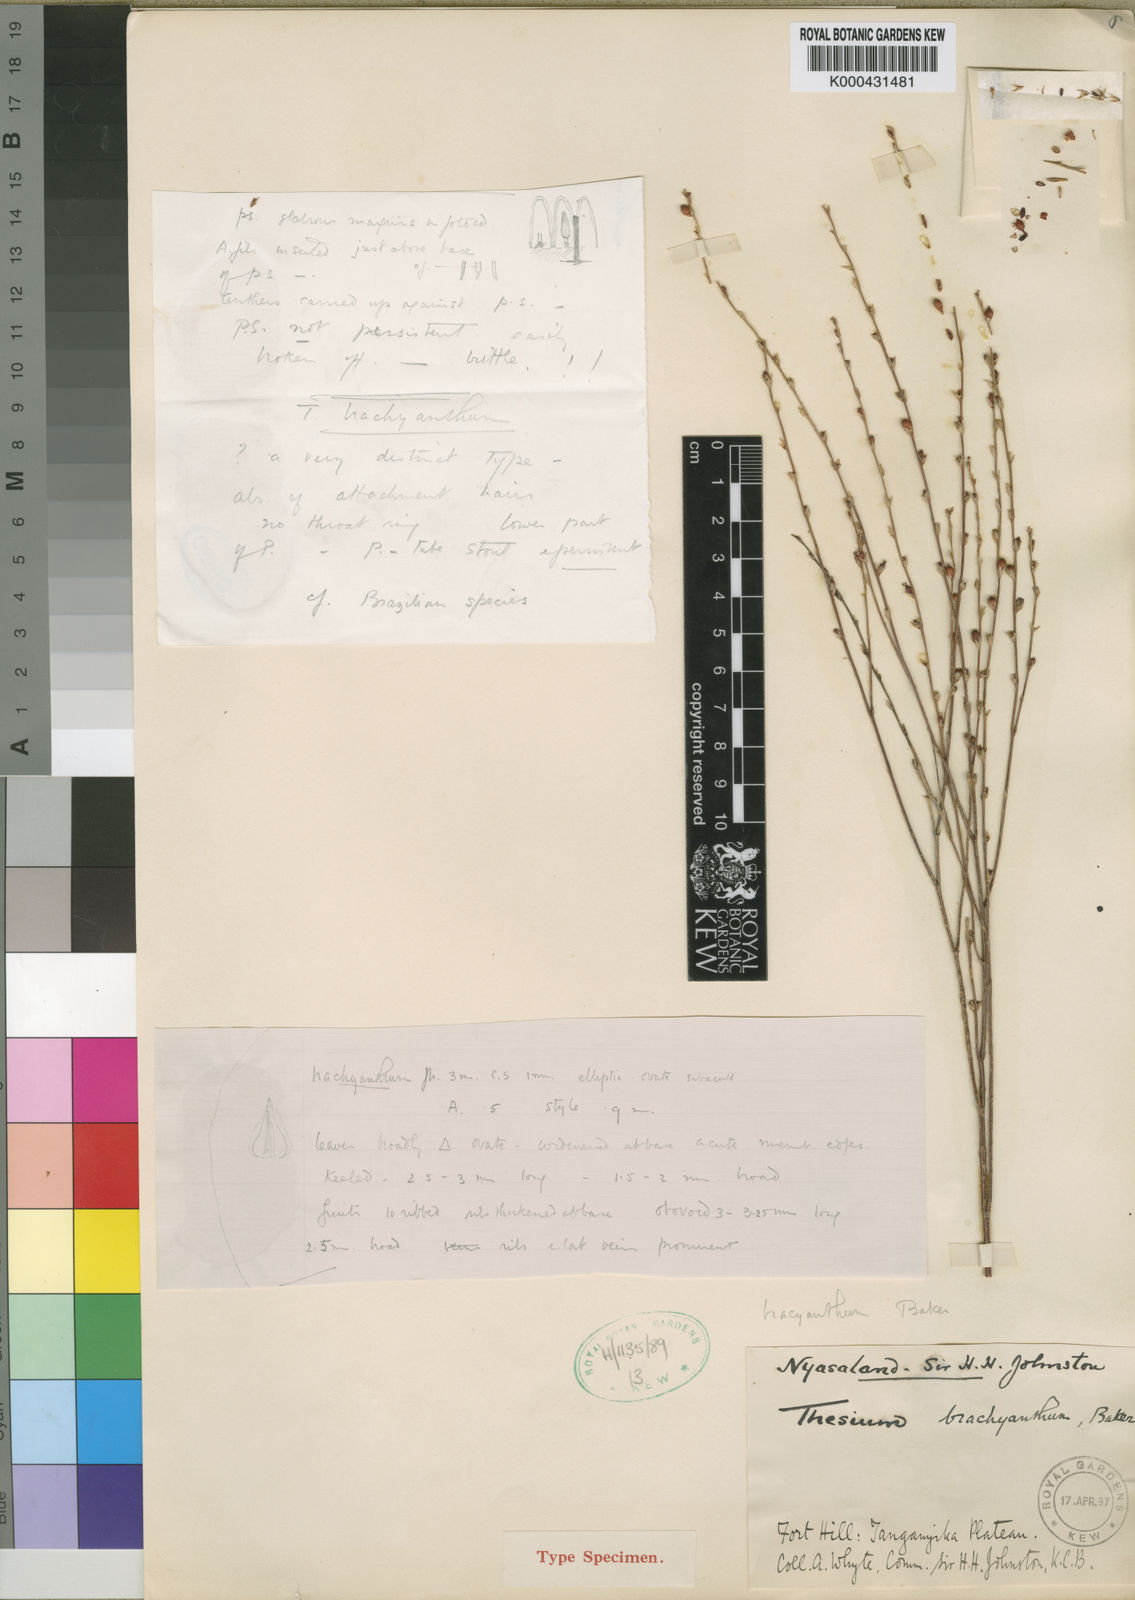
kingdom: Plantae
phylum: Tracheophyta
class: Magnoliopsida
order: Santalales
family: Thesiaceae
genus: Thesium
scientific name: Thesium
